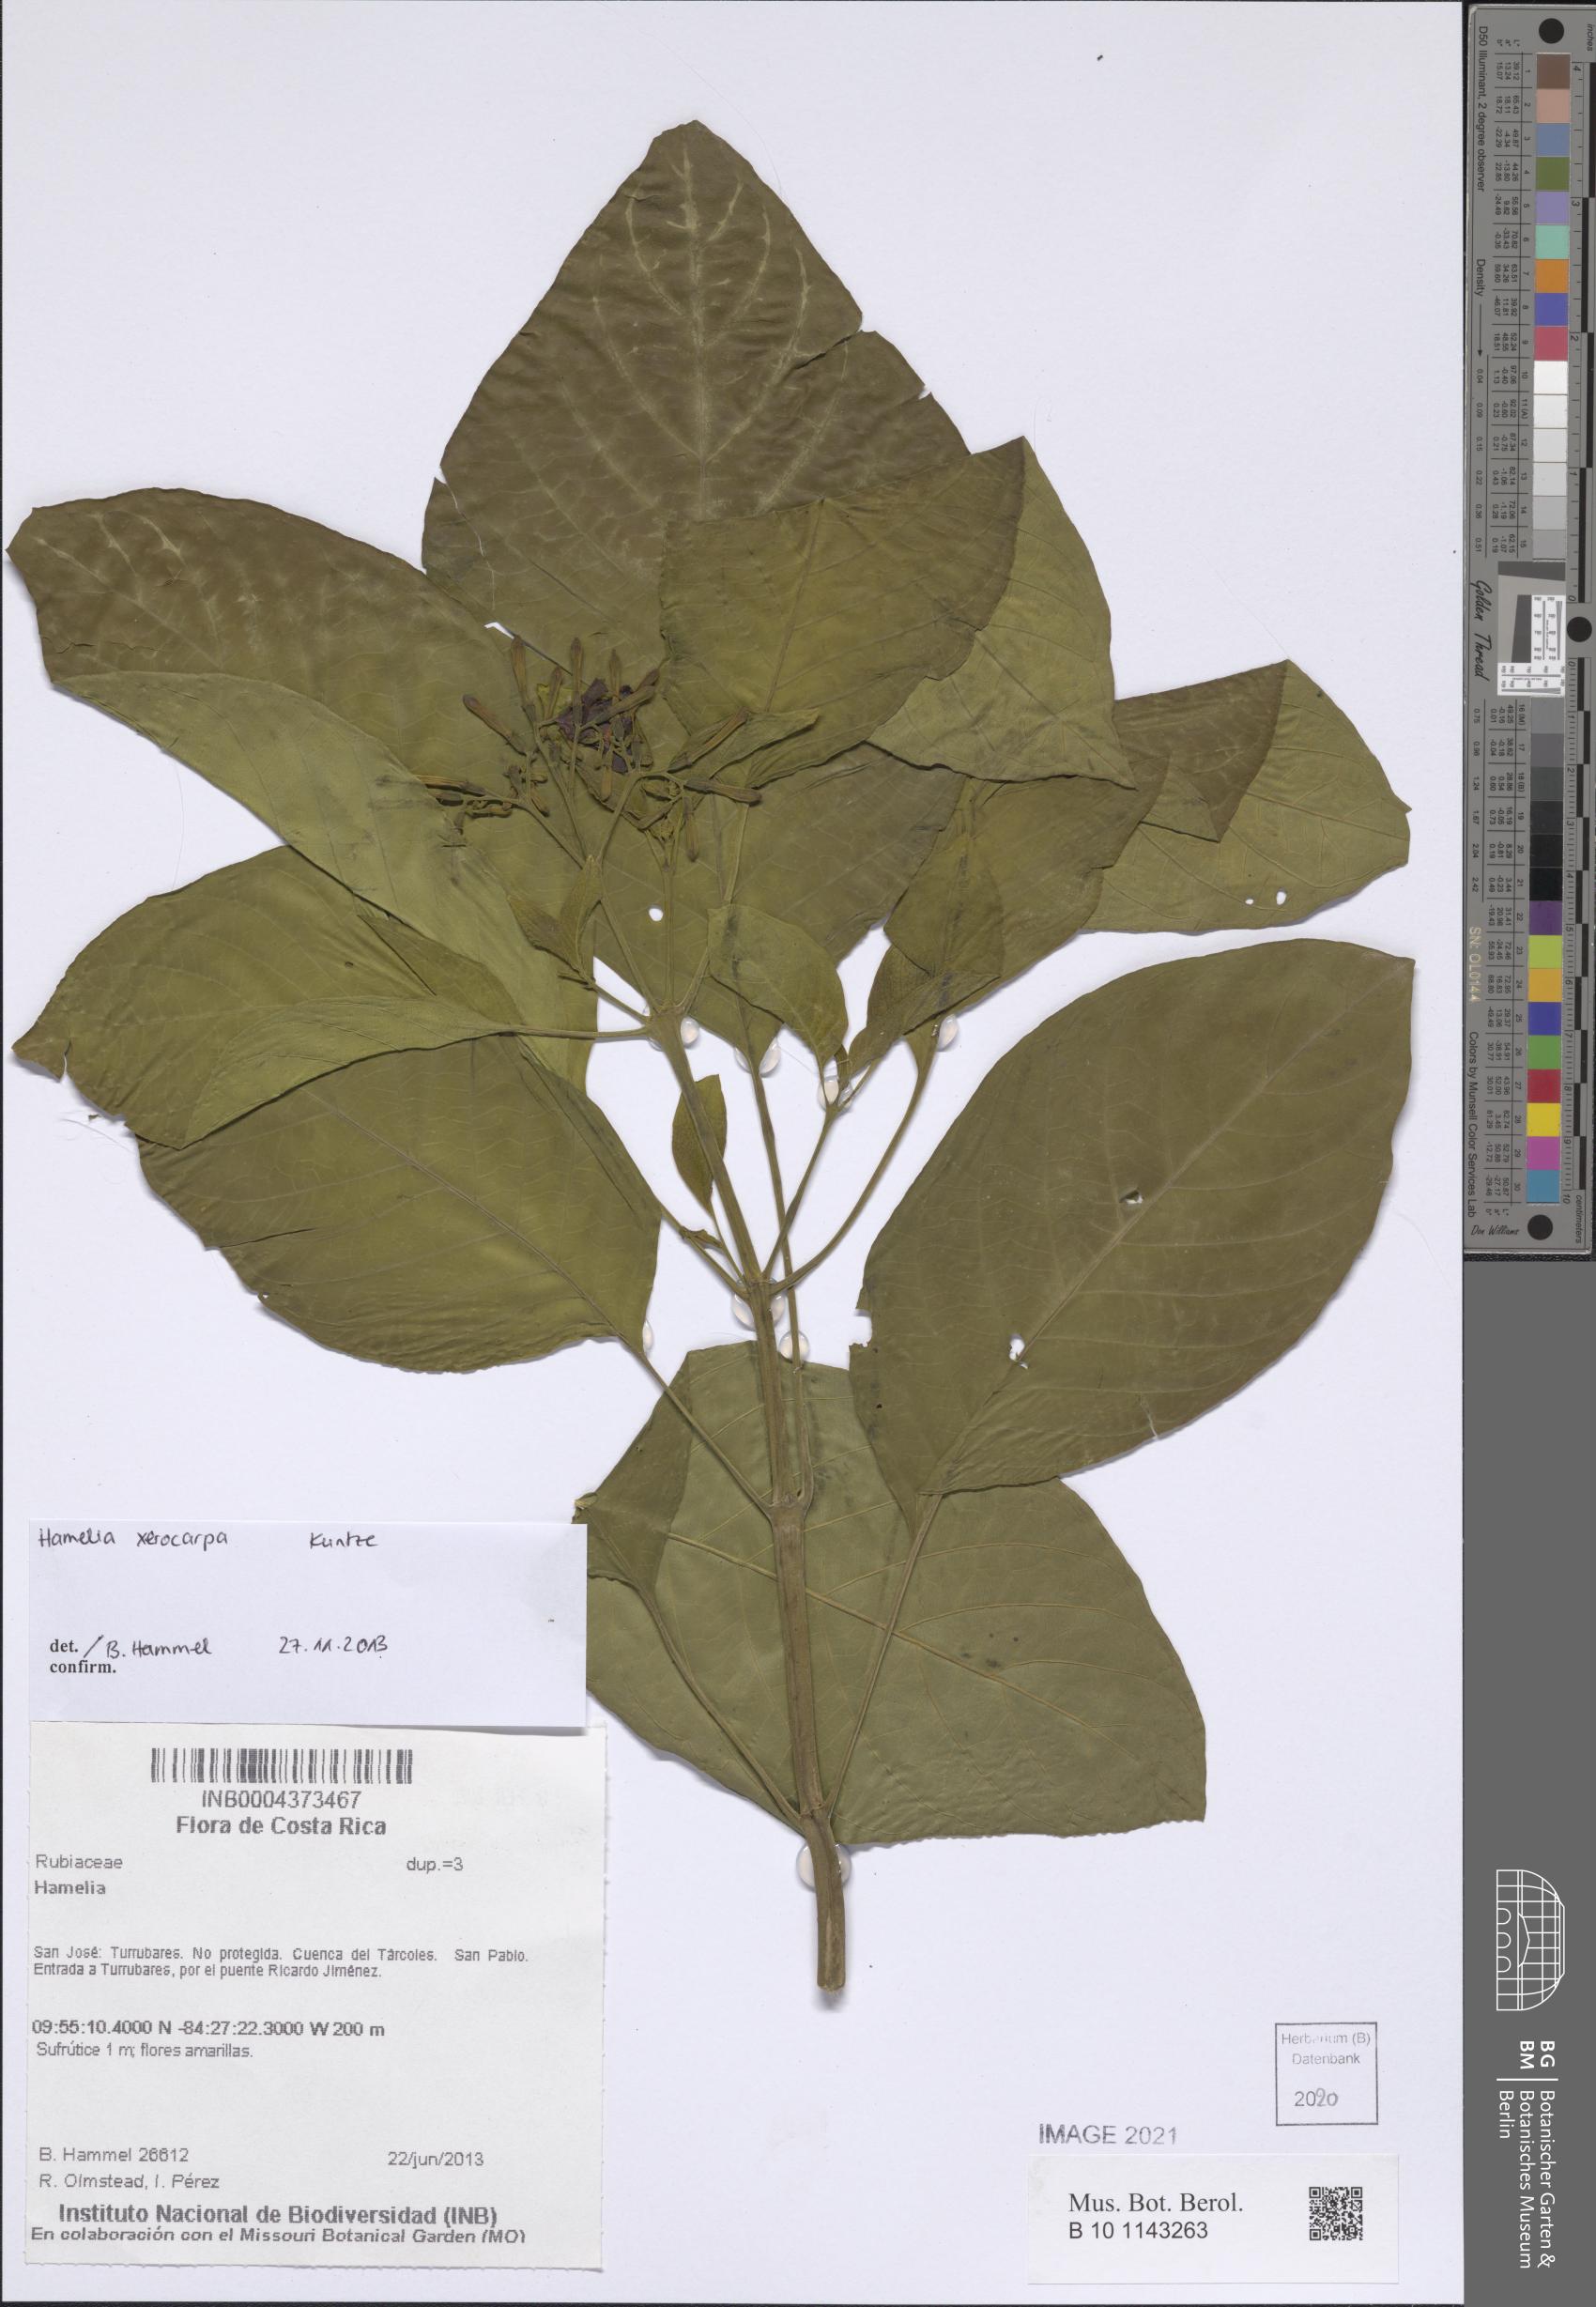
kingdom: Plantae
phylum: Tracheophyta
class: Magnoliopsida
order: Gentianales
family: Rubiaceae
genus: Hamelia
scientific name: Hamelia xerocarpa
